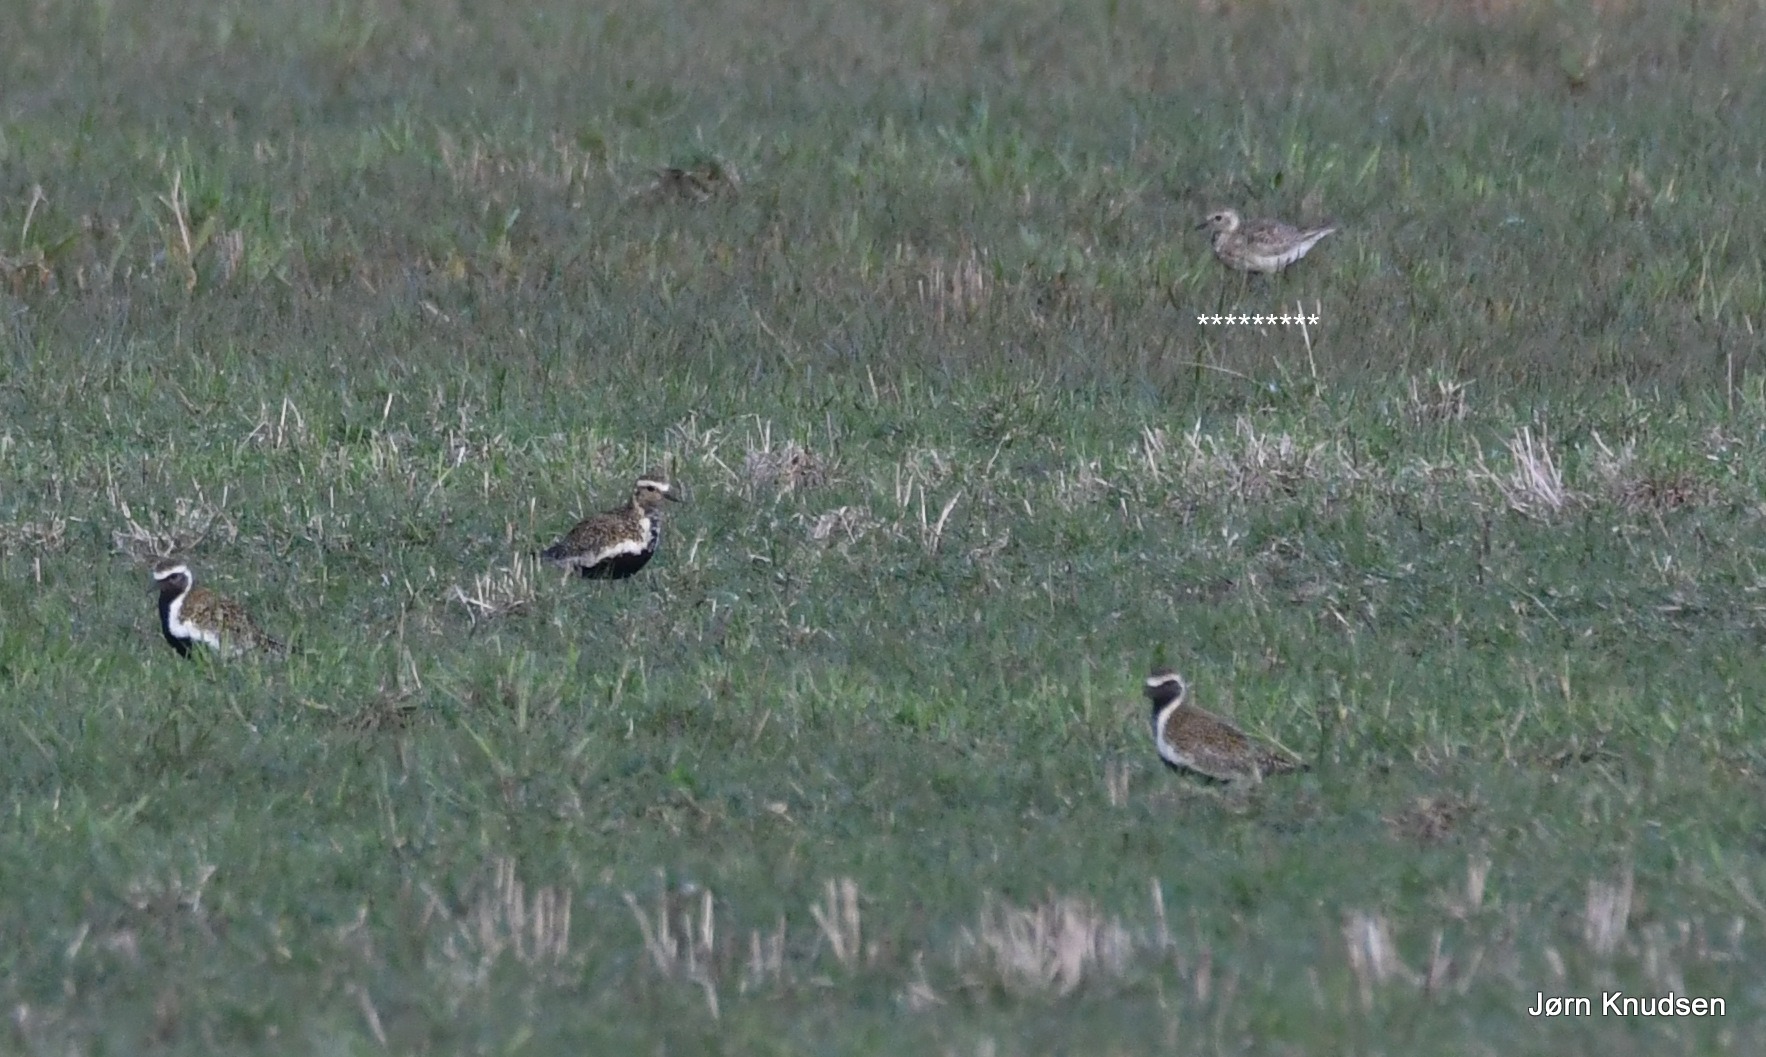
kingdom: Animalia
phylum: Chordata
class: Aves
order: Charadriiformes
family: Charadriidae
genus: Pluvialis
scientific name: Pluvialis apricaria
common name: Hjejle
